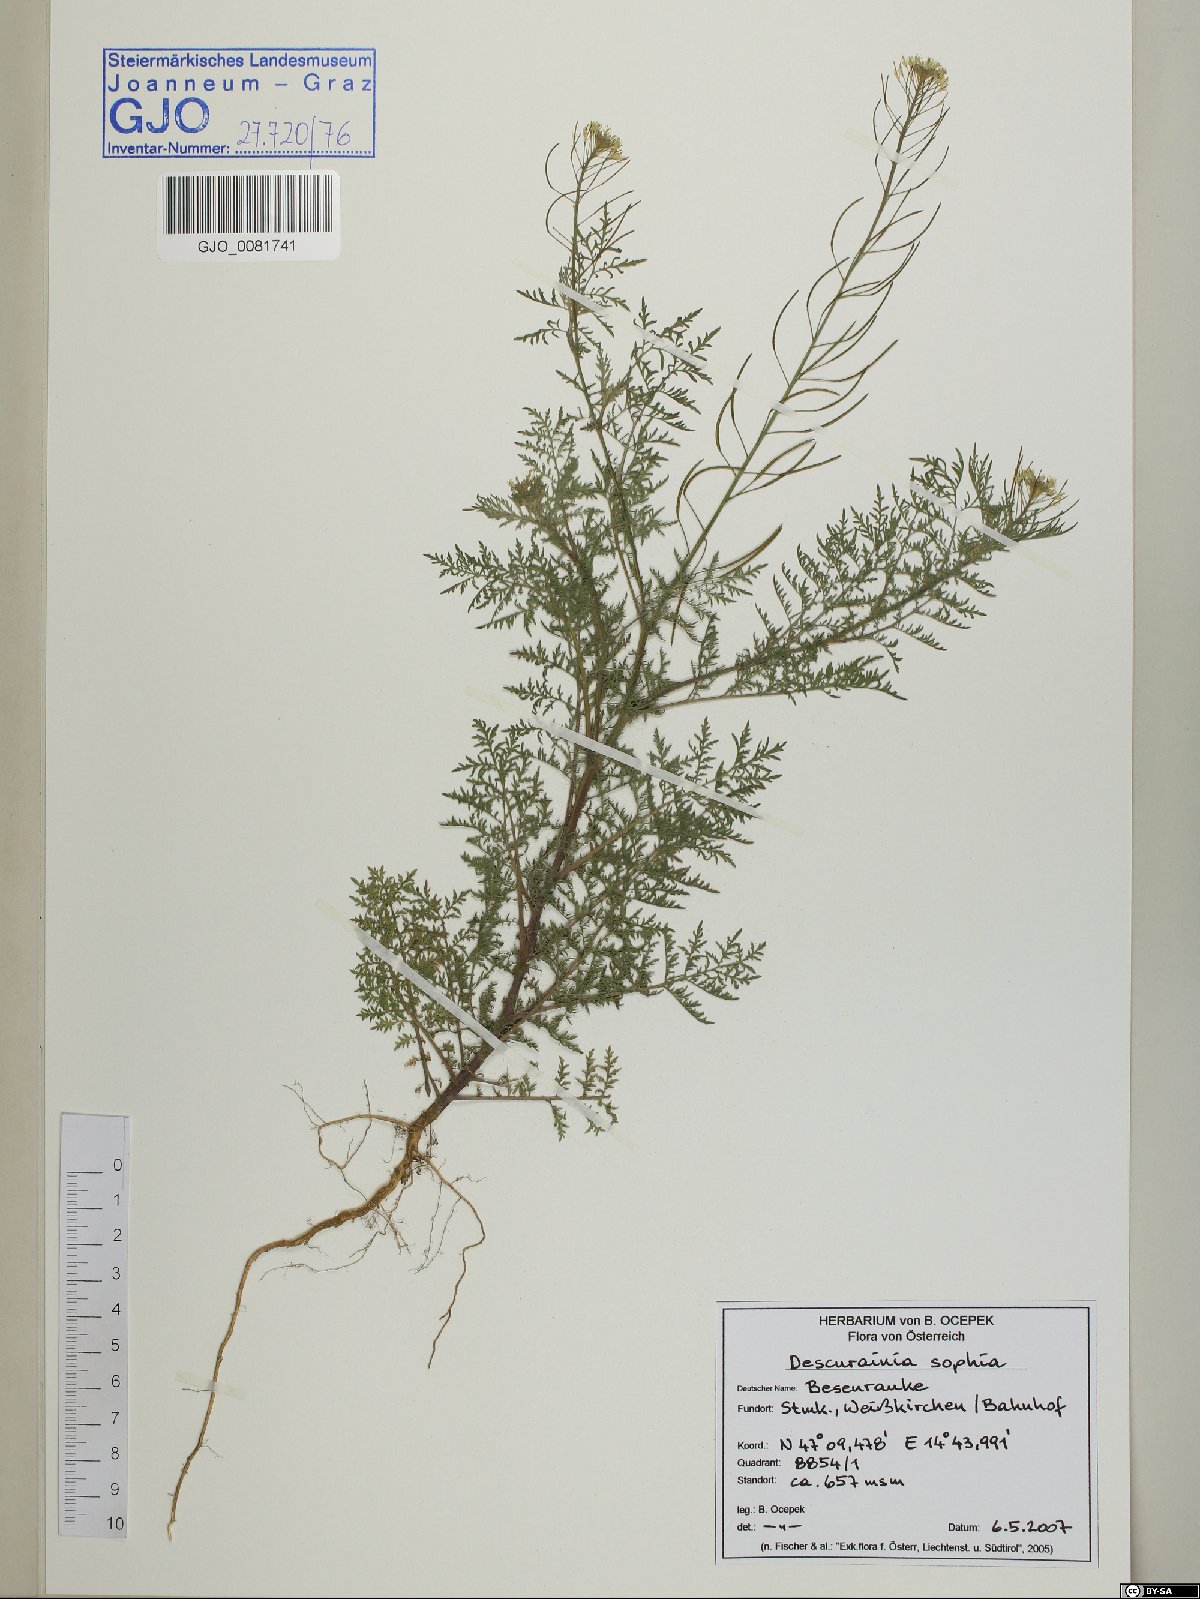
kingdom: Plantae
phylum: Tracheophyta
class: Magnoliopsida
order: Brassicales
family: Brassicaceae
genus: Descurainia
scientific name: Descurainia sophia
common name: Flixweed
